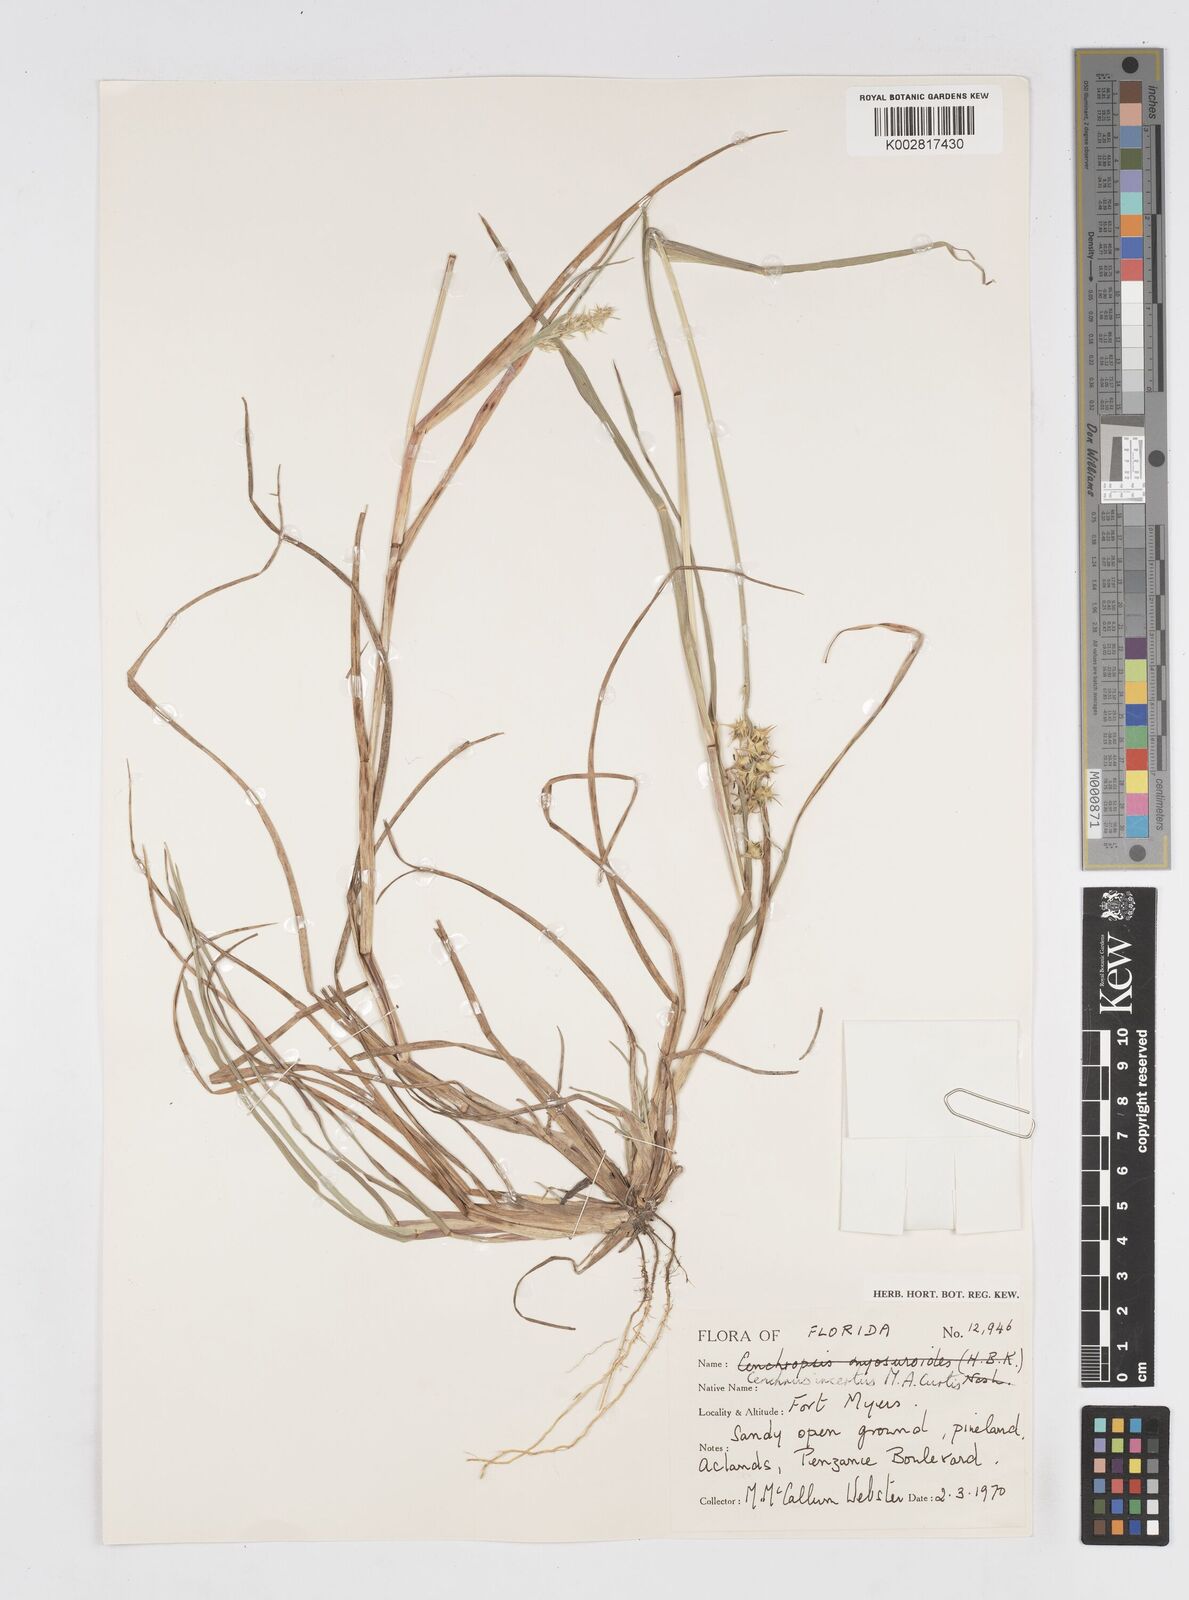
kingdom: Plantae
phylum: Tracheophyta
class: Liliopsida
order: Poales
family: Poaceae
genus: Cenchrus
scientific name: Cenchrus spinifex
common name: Coast sandbur
